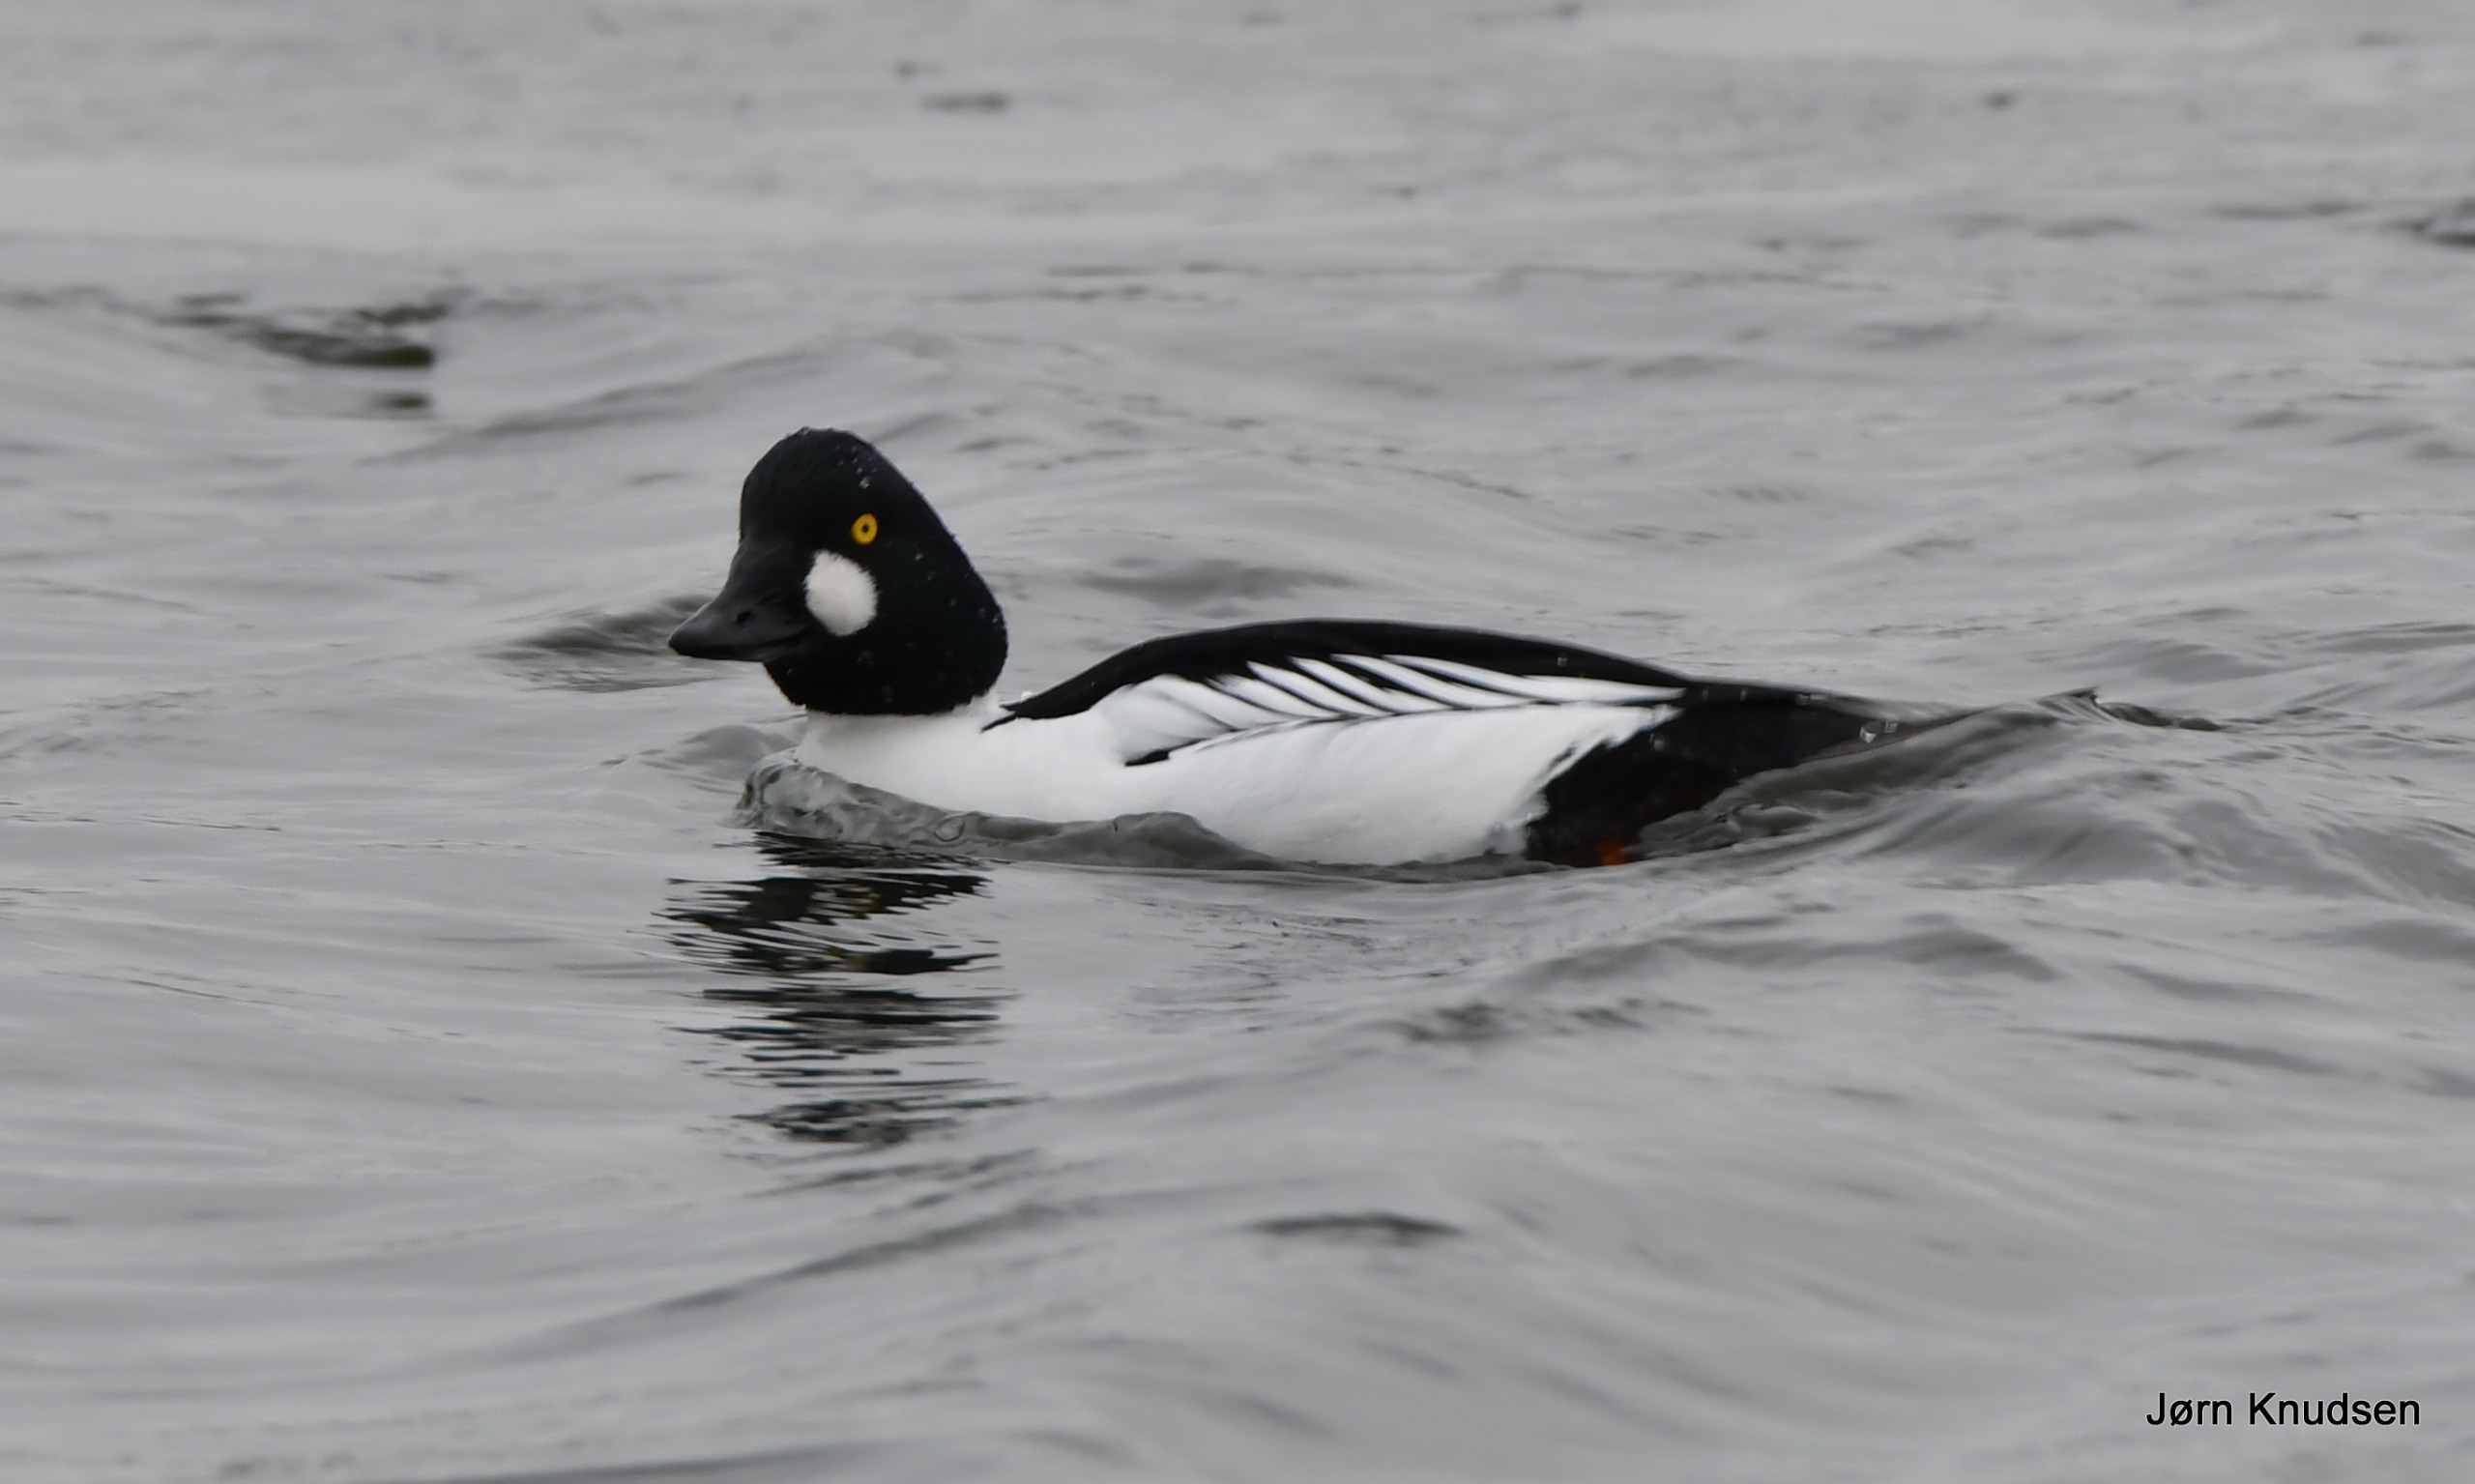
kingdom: Animalia
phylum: Chordata
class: Aves
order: Anseriformes
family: Anatidae
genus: Bucephala
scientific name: Bucephala clangula
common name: Hvinand
